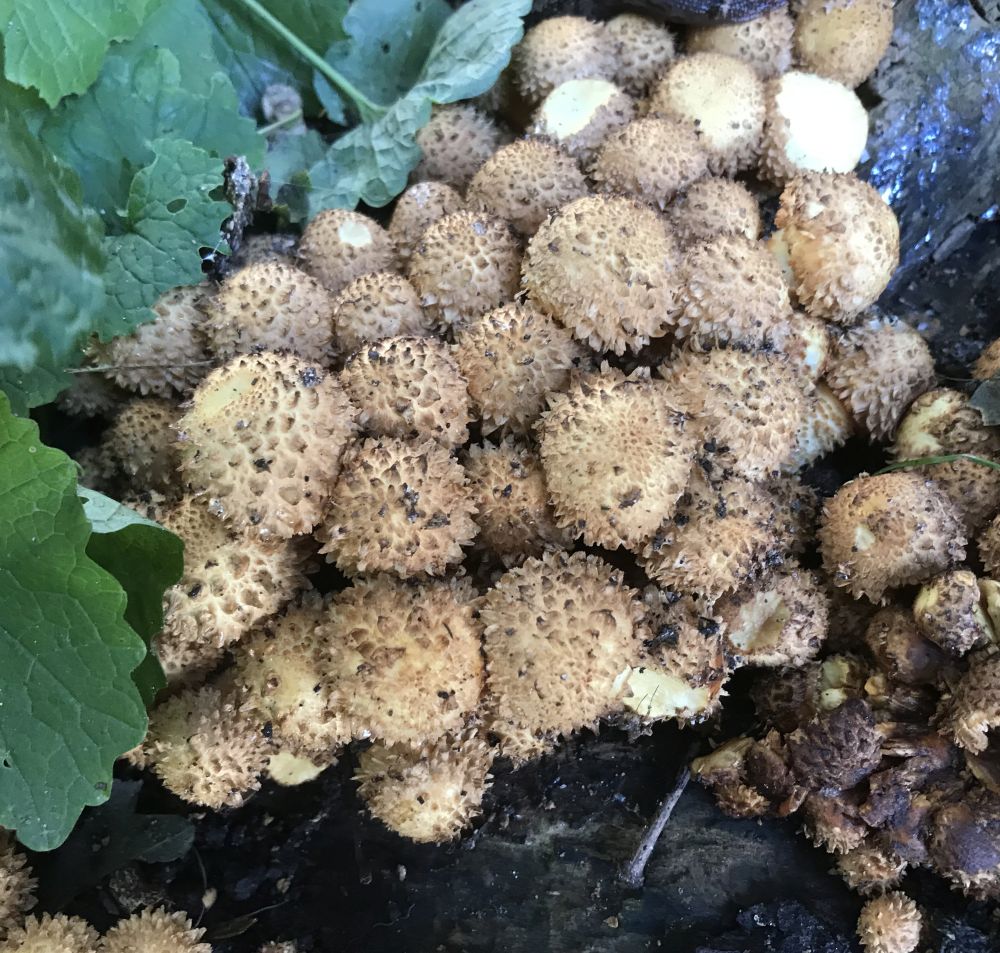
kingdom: Fungi
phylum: Basidiomycota
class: Agaricomycetes
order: Agaricales
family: Strophariaceae
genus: Pholiota
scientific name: Pholiota squarrosa
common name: krumskællet skælhat
